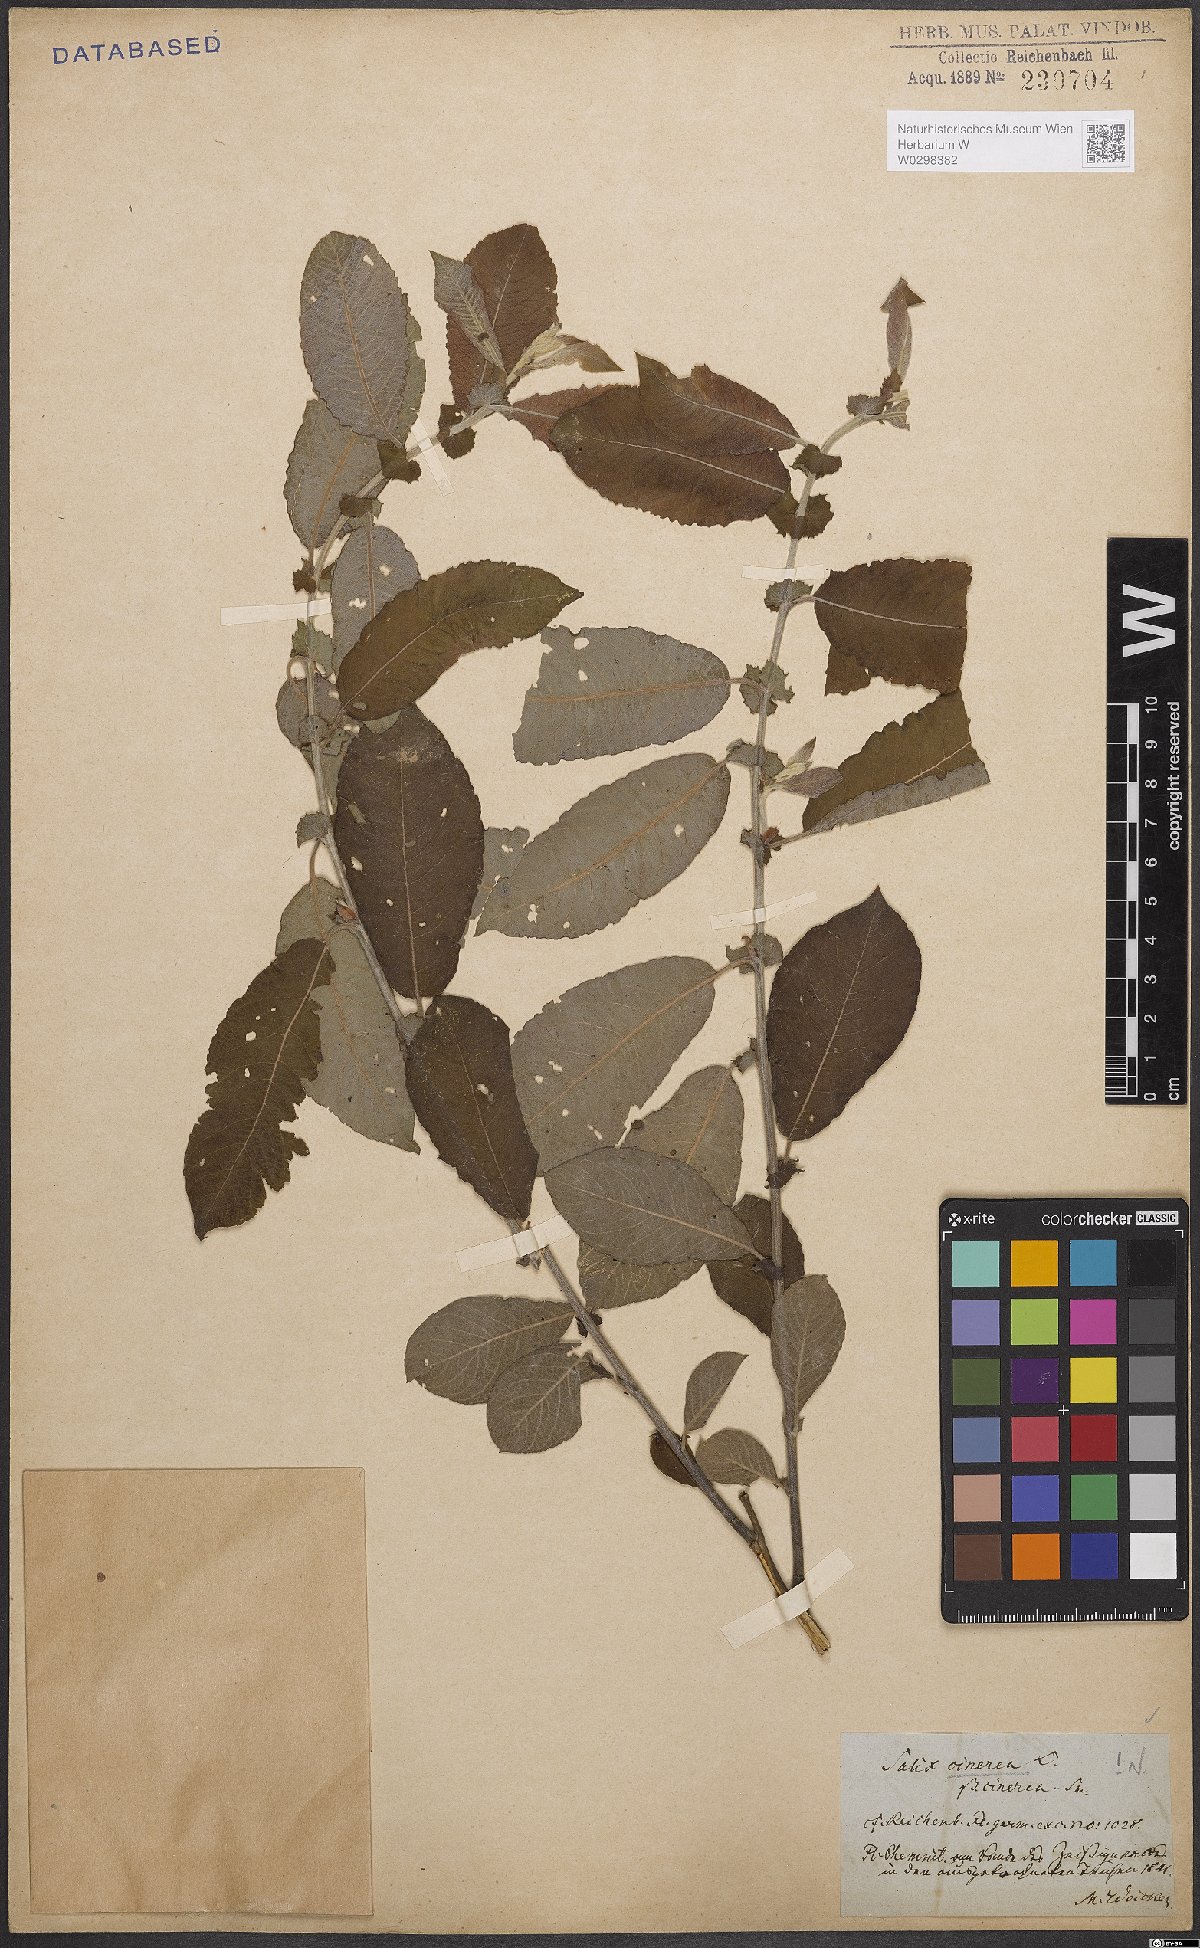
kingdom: Plantae
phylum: Tracheophyta
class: Magnoliopsida
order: Malpighiales
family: Salicaceae
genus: Salix
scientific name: Salix cinerea
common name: Common sallow
